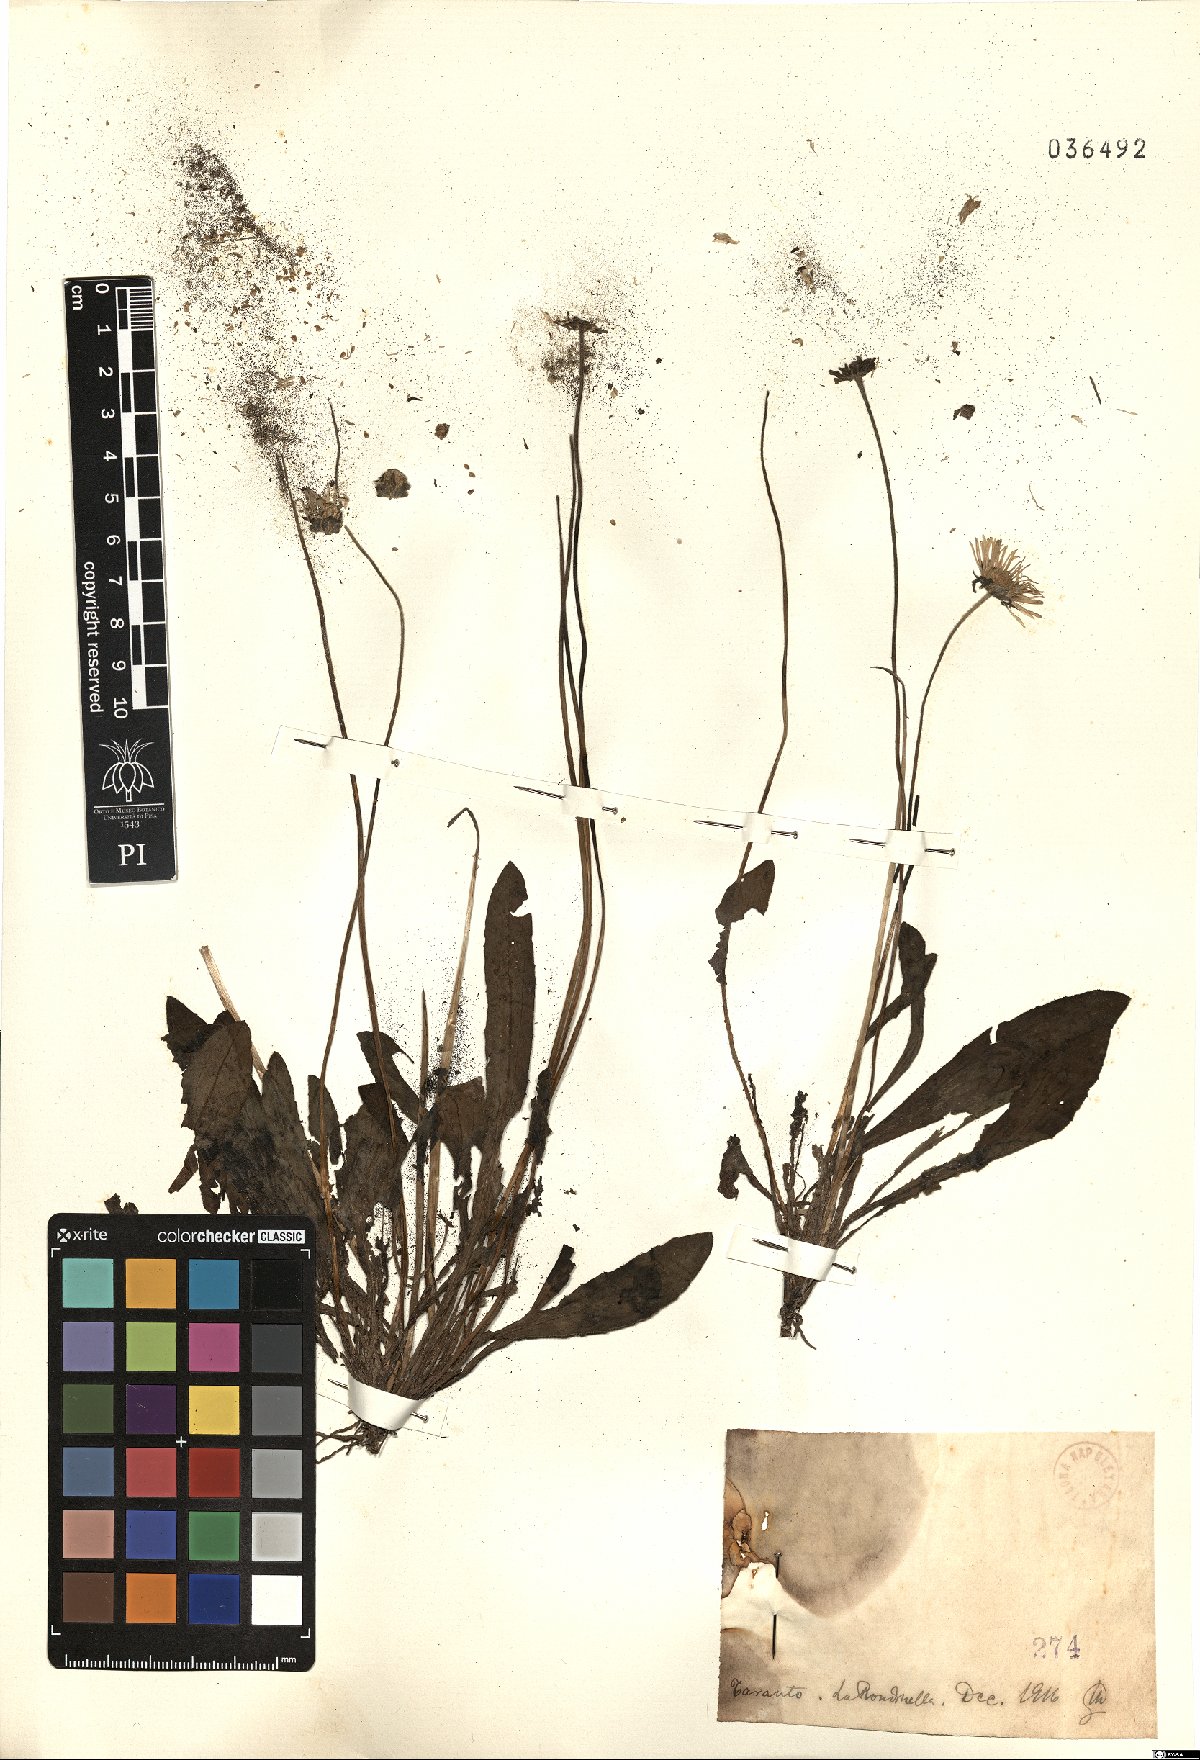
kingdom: Plantae
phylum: Tracheophyta
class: Magnoliopsida
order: Asterales
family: Asteraceae
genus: Bellis
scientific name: Bellis
